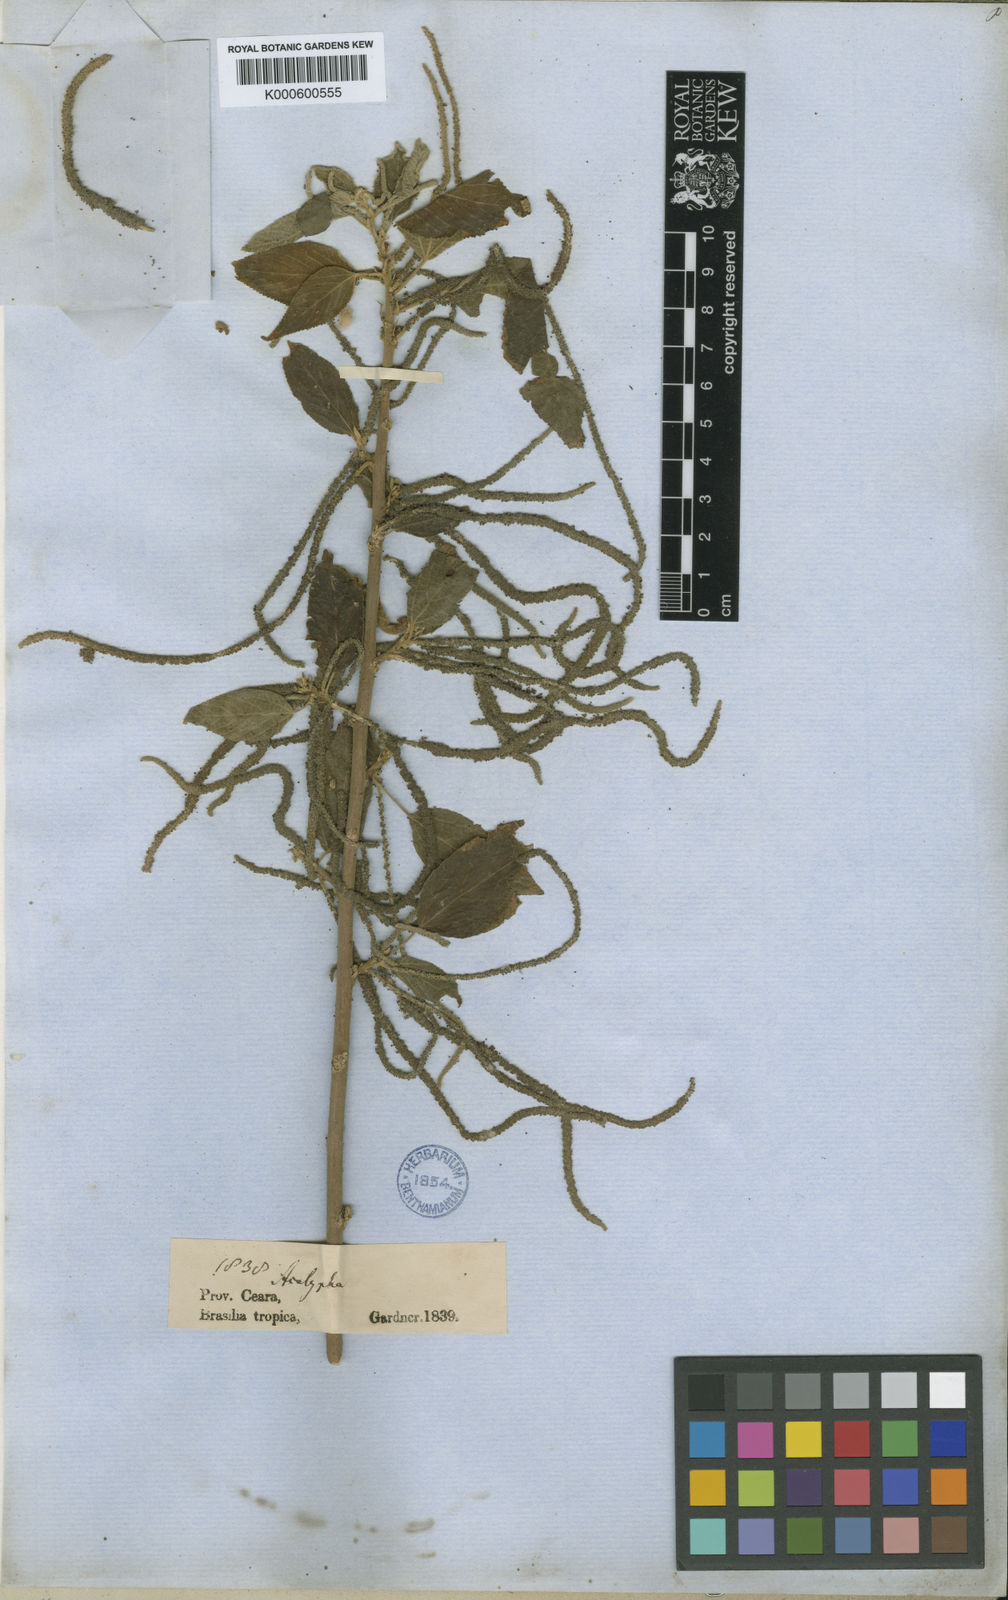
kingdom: Plantae
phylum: Tracheophyta
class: Magnoliopsida
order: Malpighiales
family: Euphorbiaceae
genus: Acalypha
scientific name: Acalypha villosa
